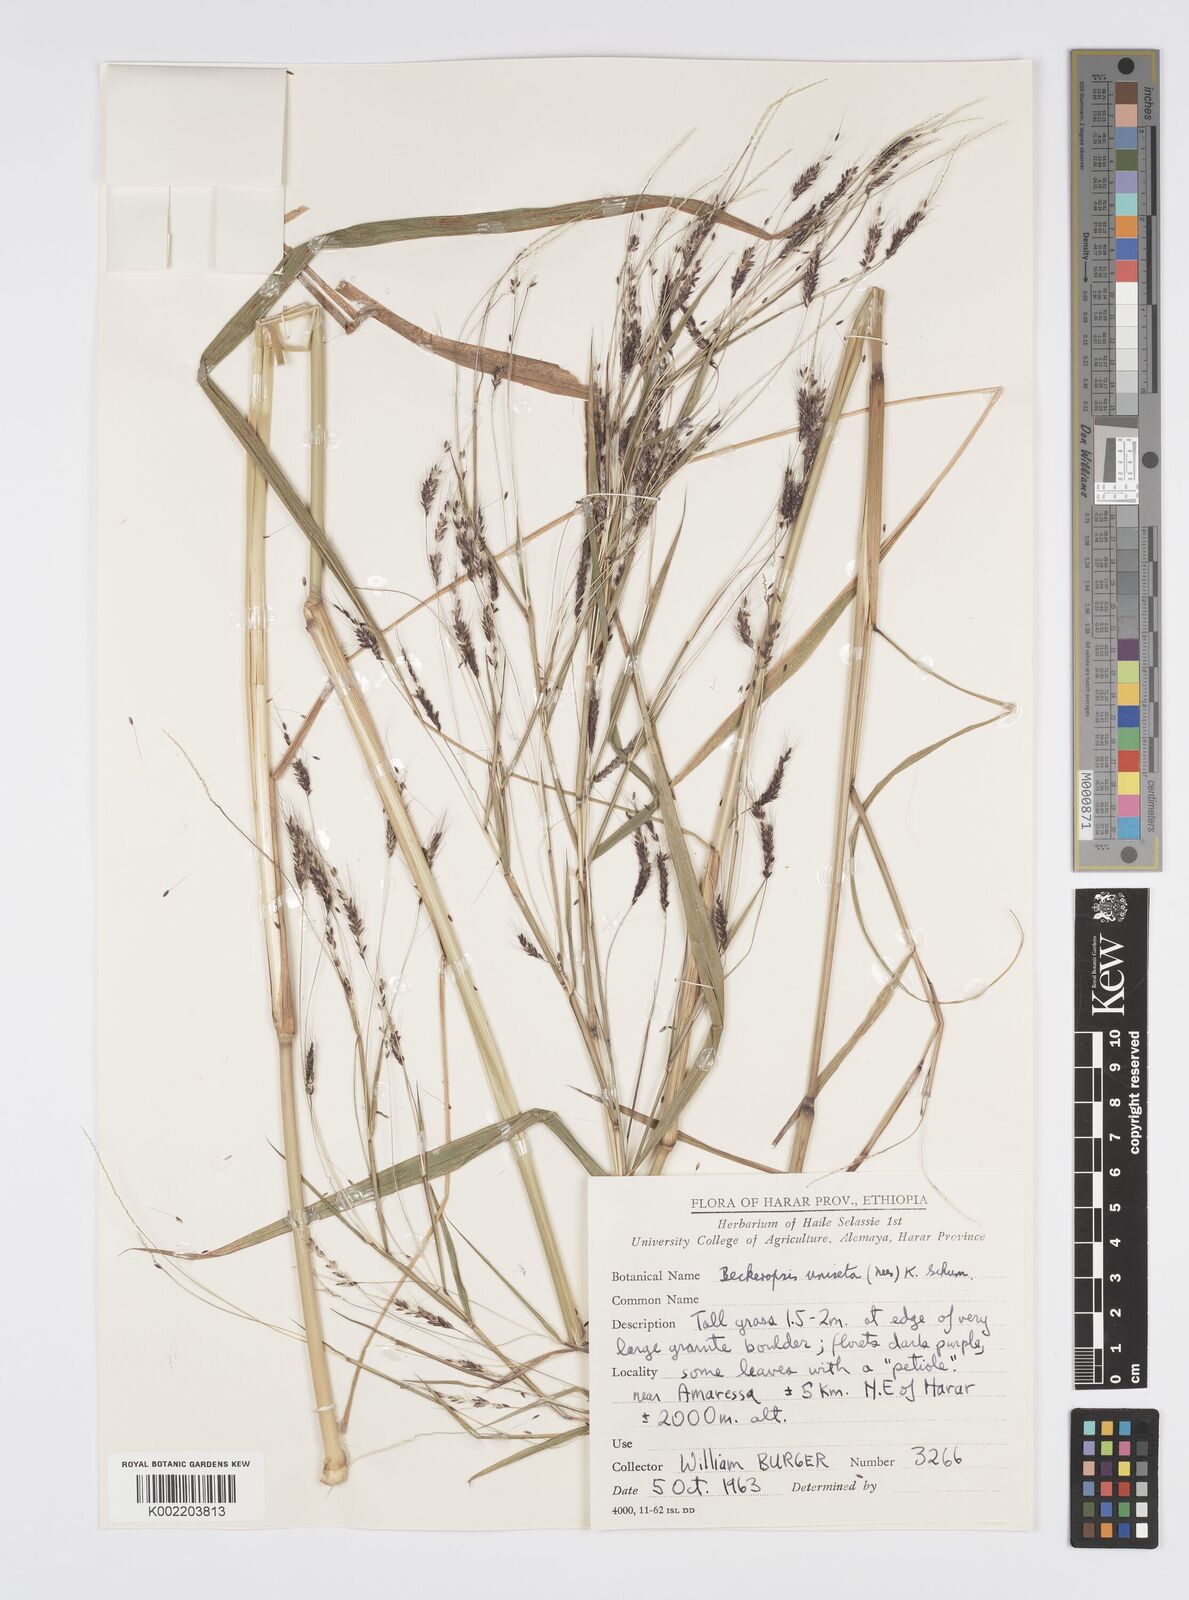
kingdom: Plantae
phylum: Tracheophyta
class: Liliopsida
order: Poales
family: Poaceae
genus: Cenchrus
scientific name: Cenchrus unisetus
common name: Natal grass
